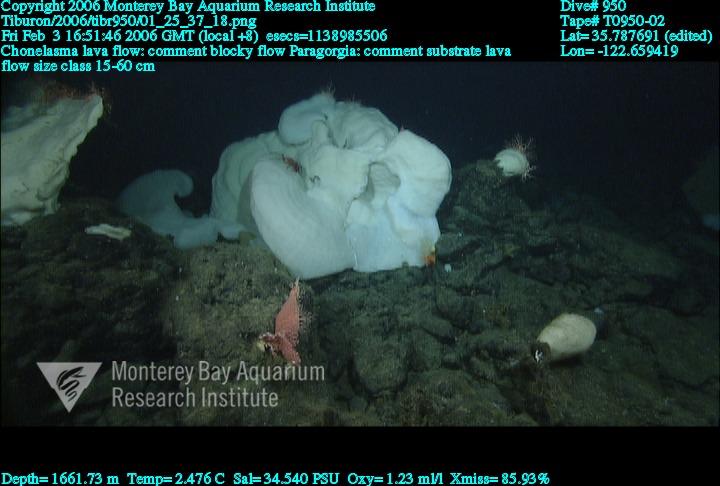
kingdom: Animalia
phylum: Porifera
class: Hexactinellida
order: Sceptrulophora
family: Euretidae
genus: Chonelasma
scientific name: Chonelasma
